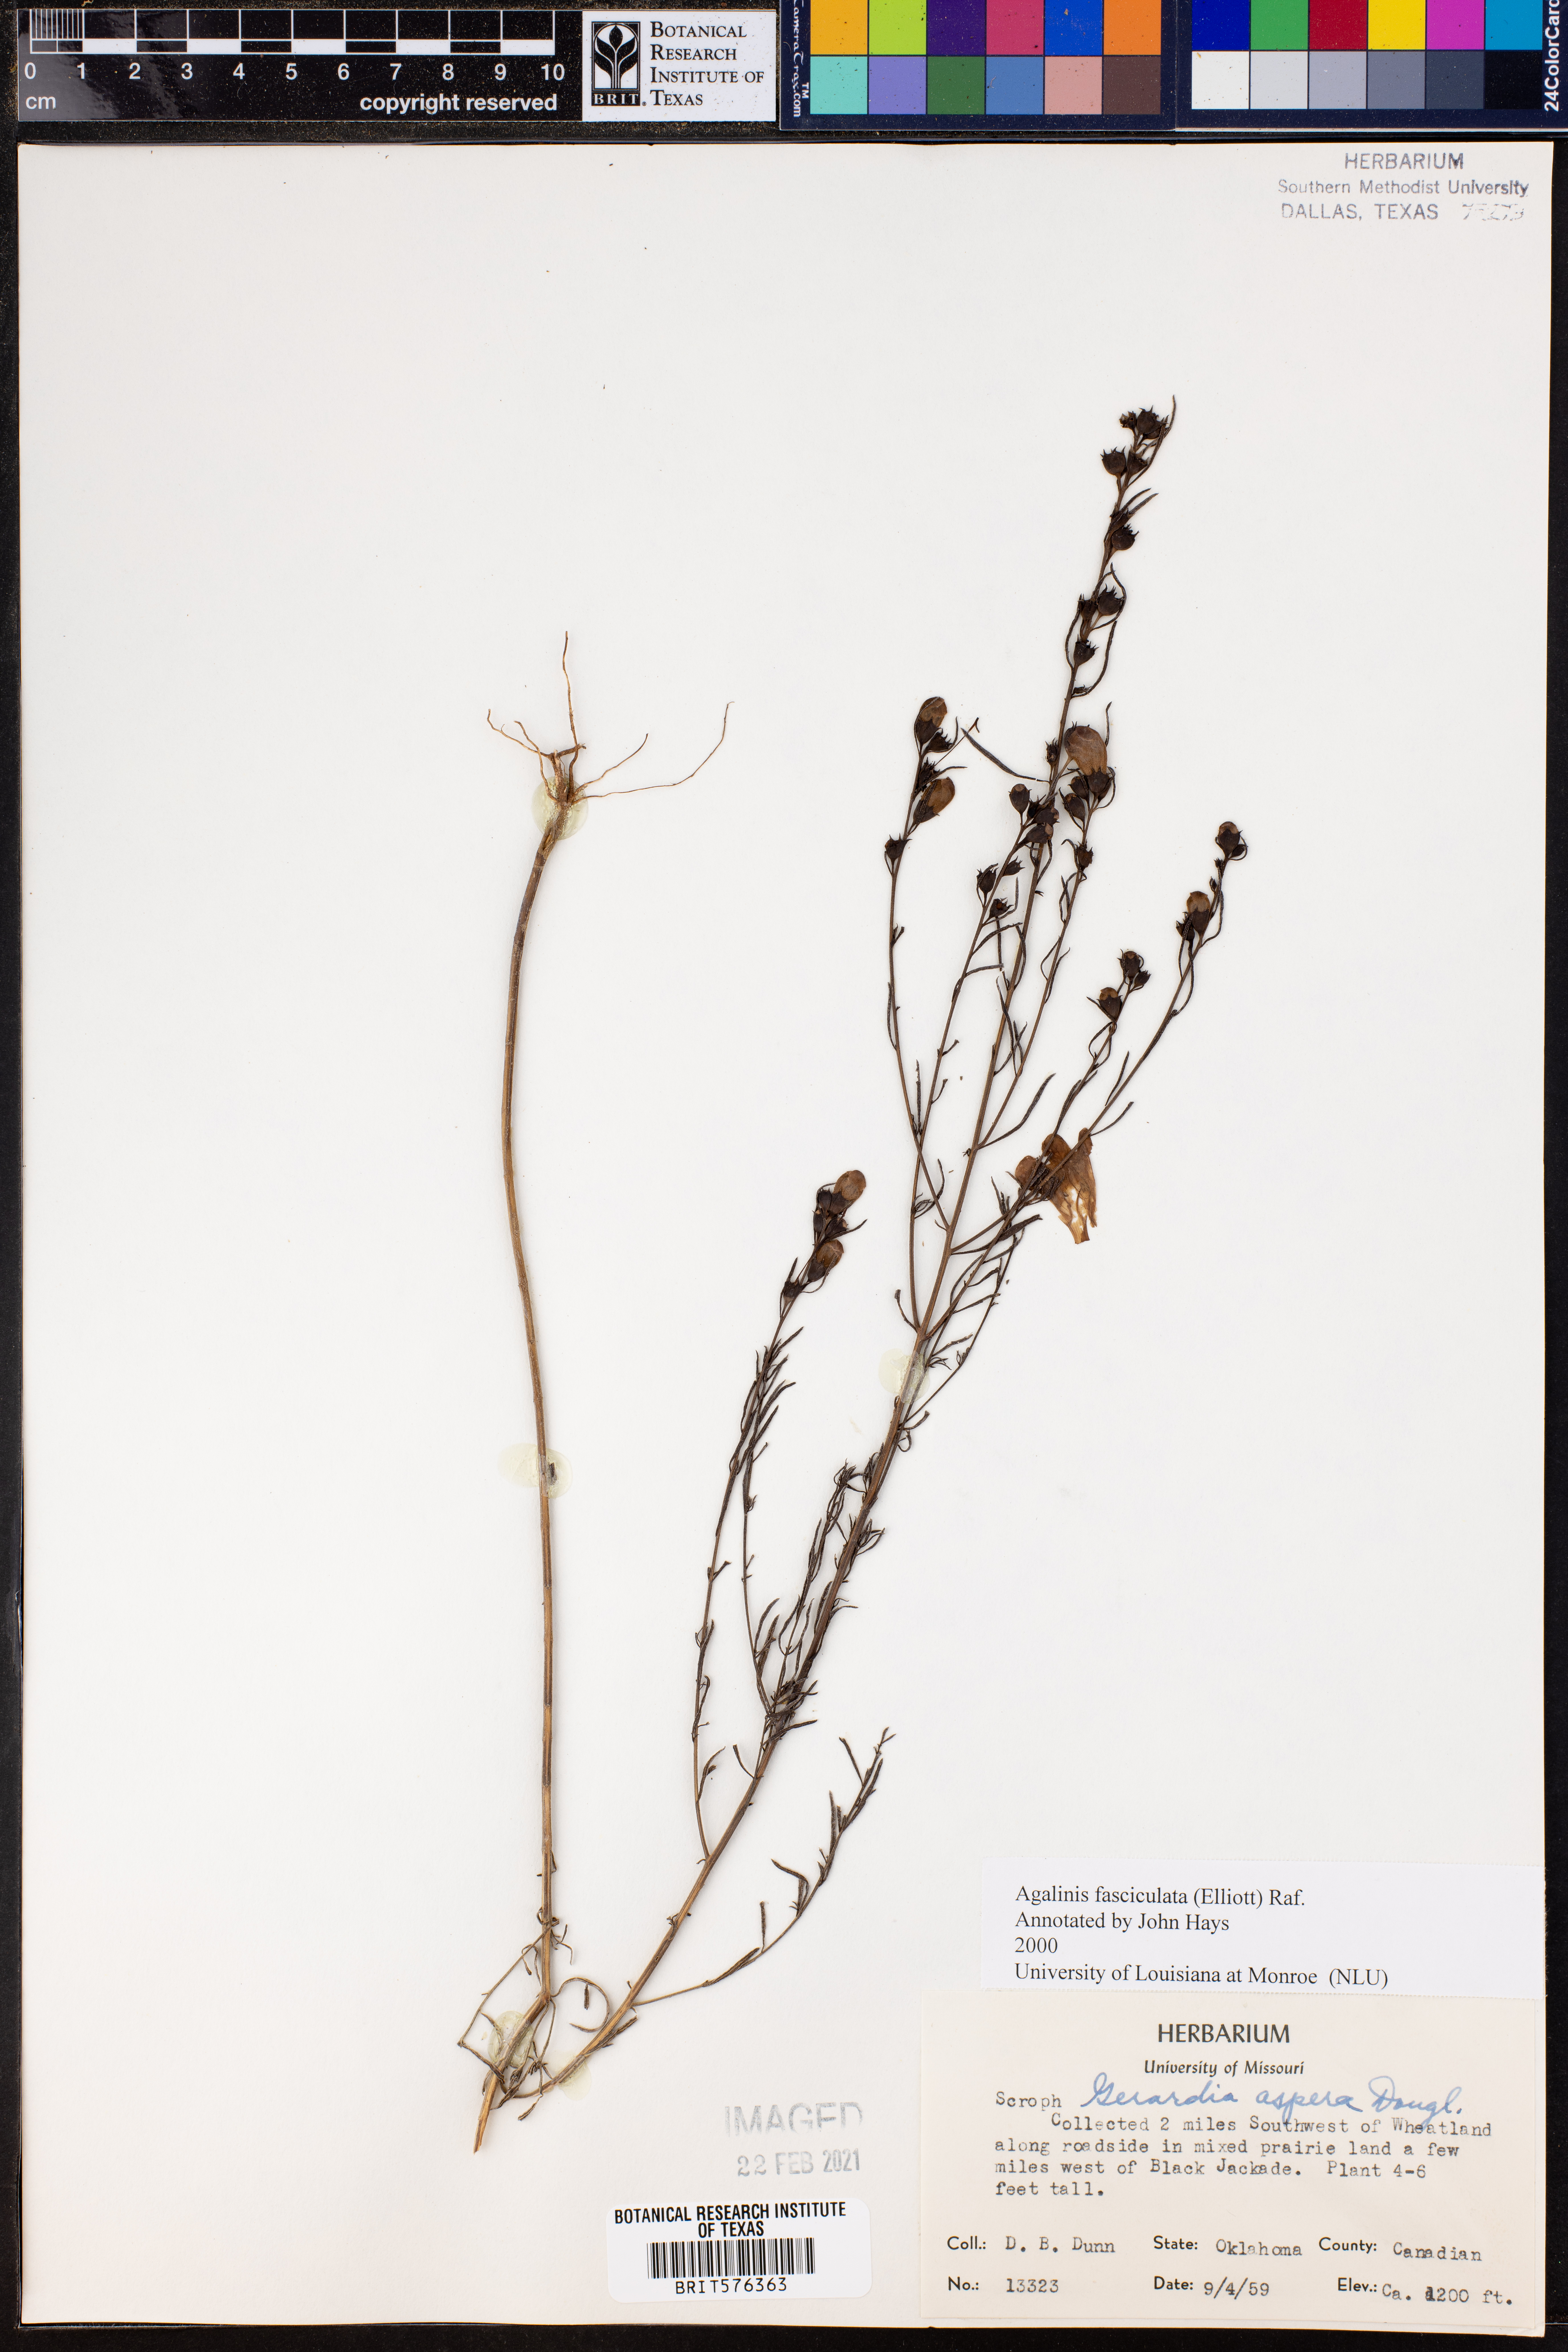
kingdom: Plantae
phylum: Tracheophyta
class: Magnoliopsida
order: Lamiales
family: Orobanchaceae
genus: Agalinis
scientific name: Agalinis fasciculata
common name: Beach false foxglove
